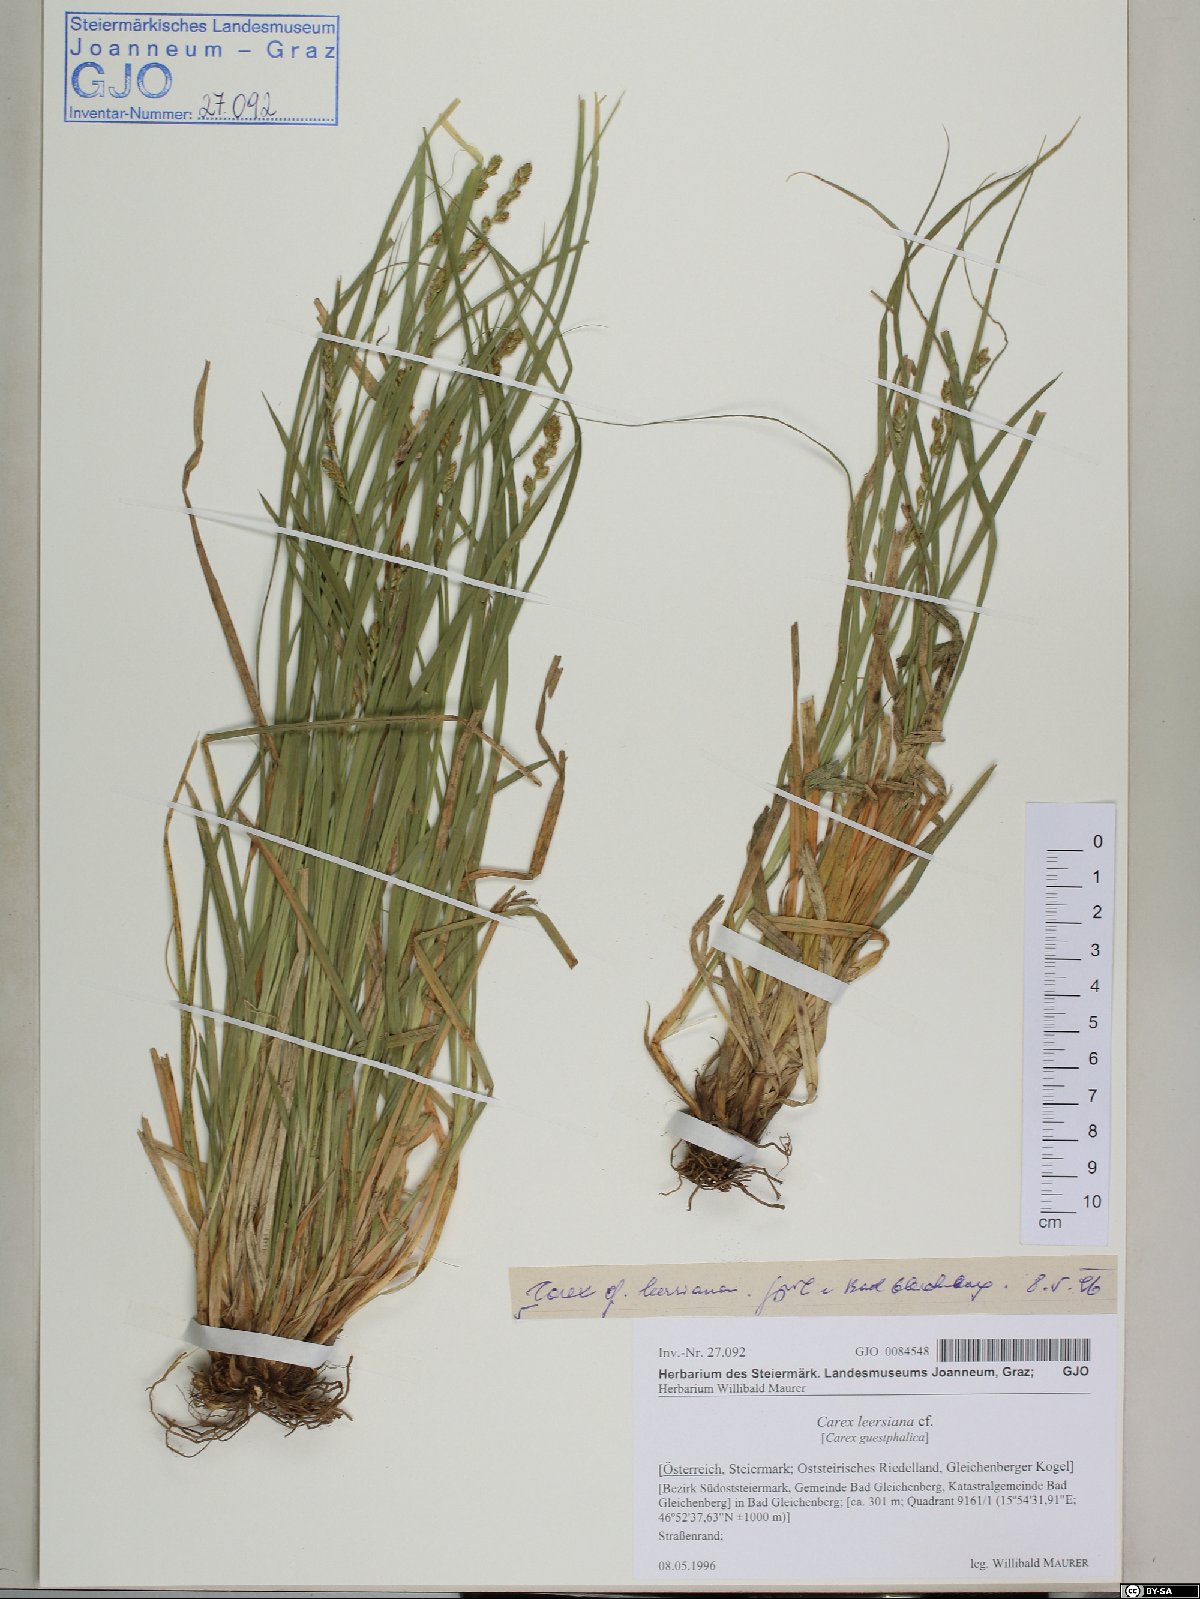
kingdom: Plantae
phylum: Tracheophyta
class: Liliopsida
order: Poales
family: Cyperaceae
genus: Carex
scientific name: Carex leersii
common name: Leers' sedge
